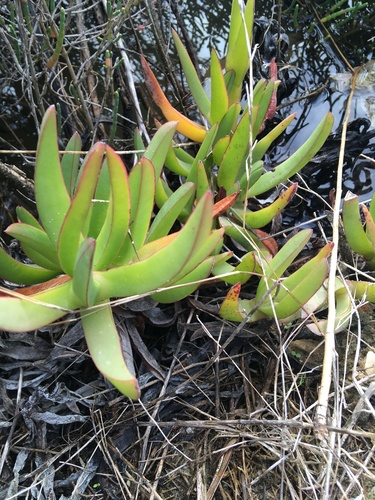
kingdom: Plantae
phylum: Tracheophyta
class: Magnoliopsida
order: Caryophyllales
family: Aizoaceae
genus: Carpobrotus
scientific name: Carpobrotus edulis
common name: Hottentot-fig
